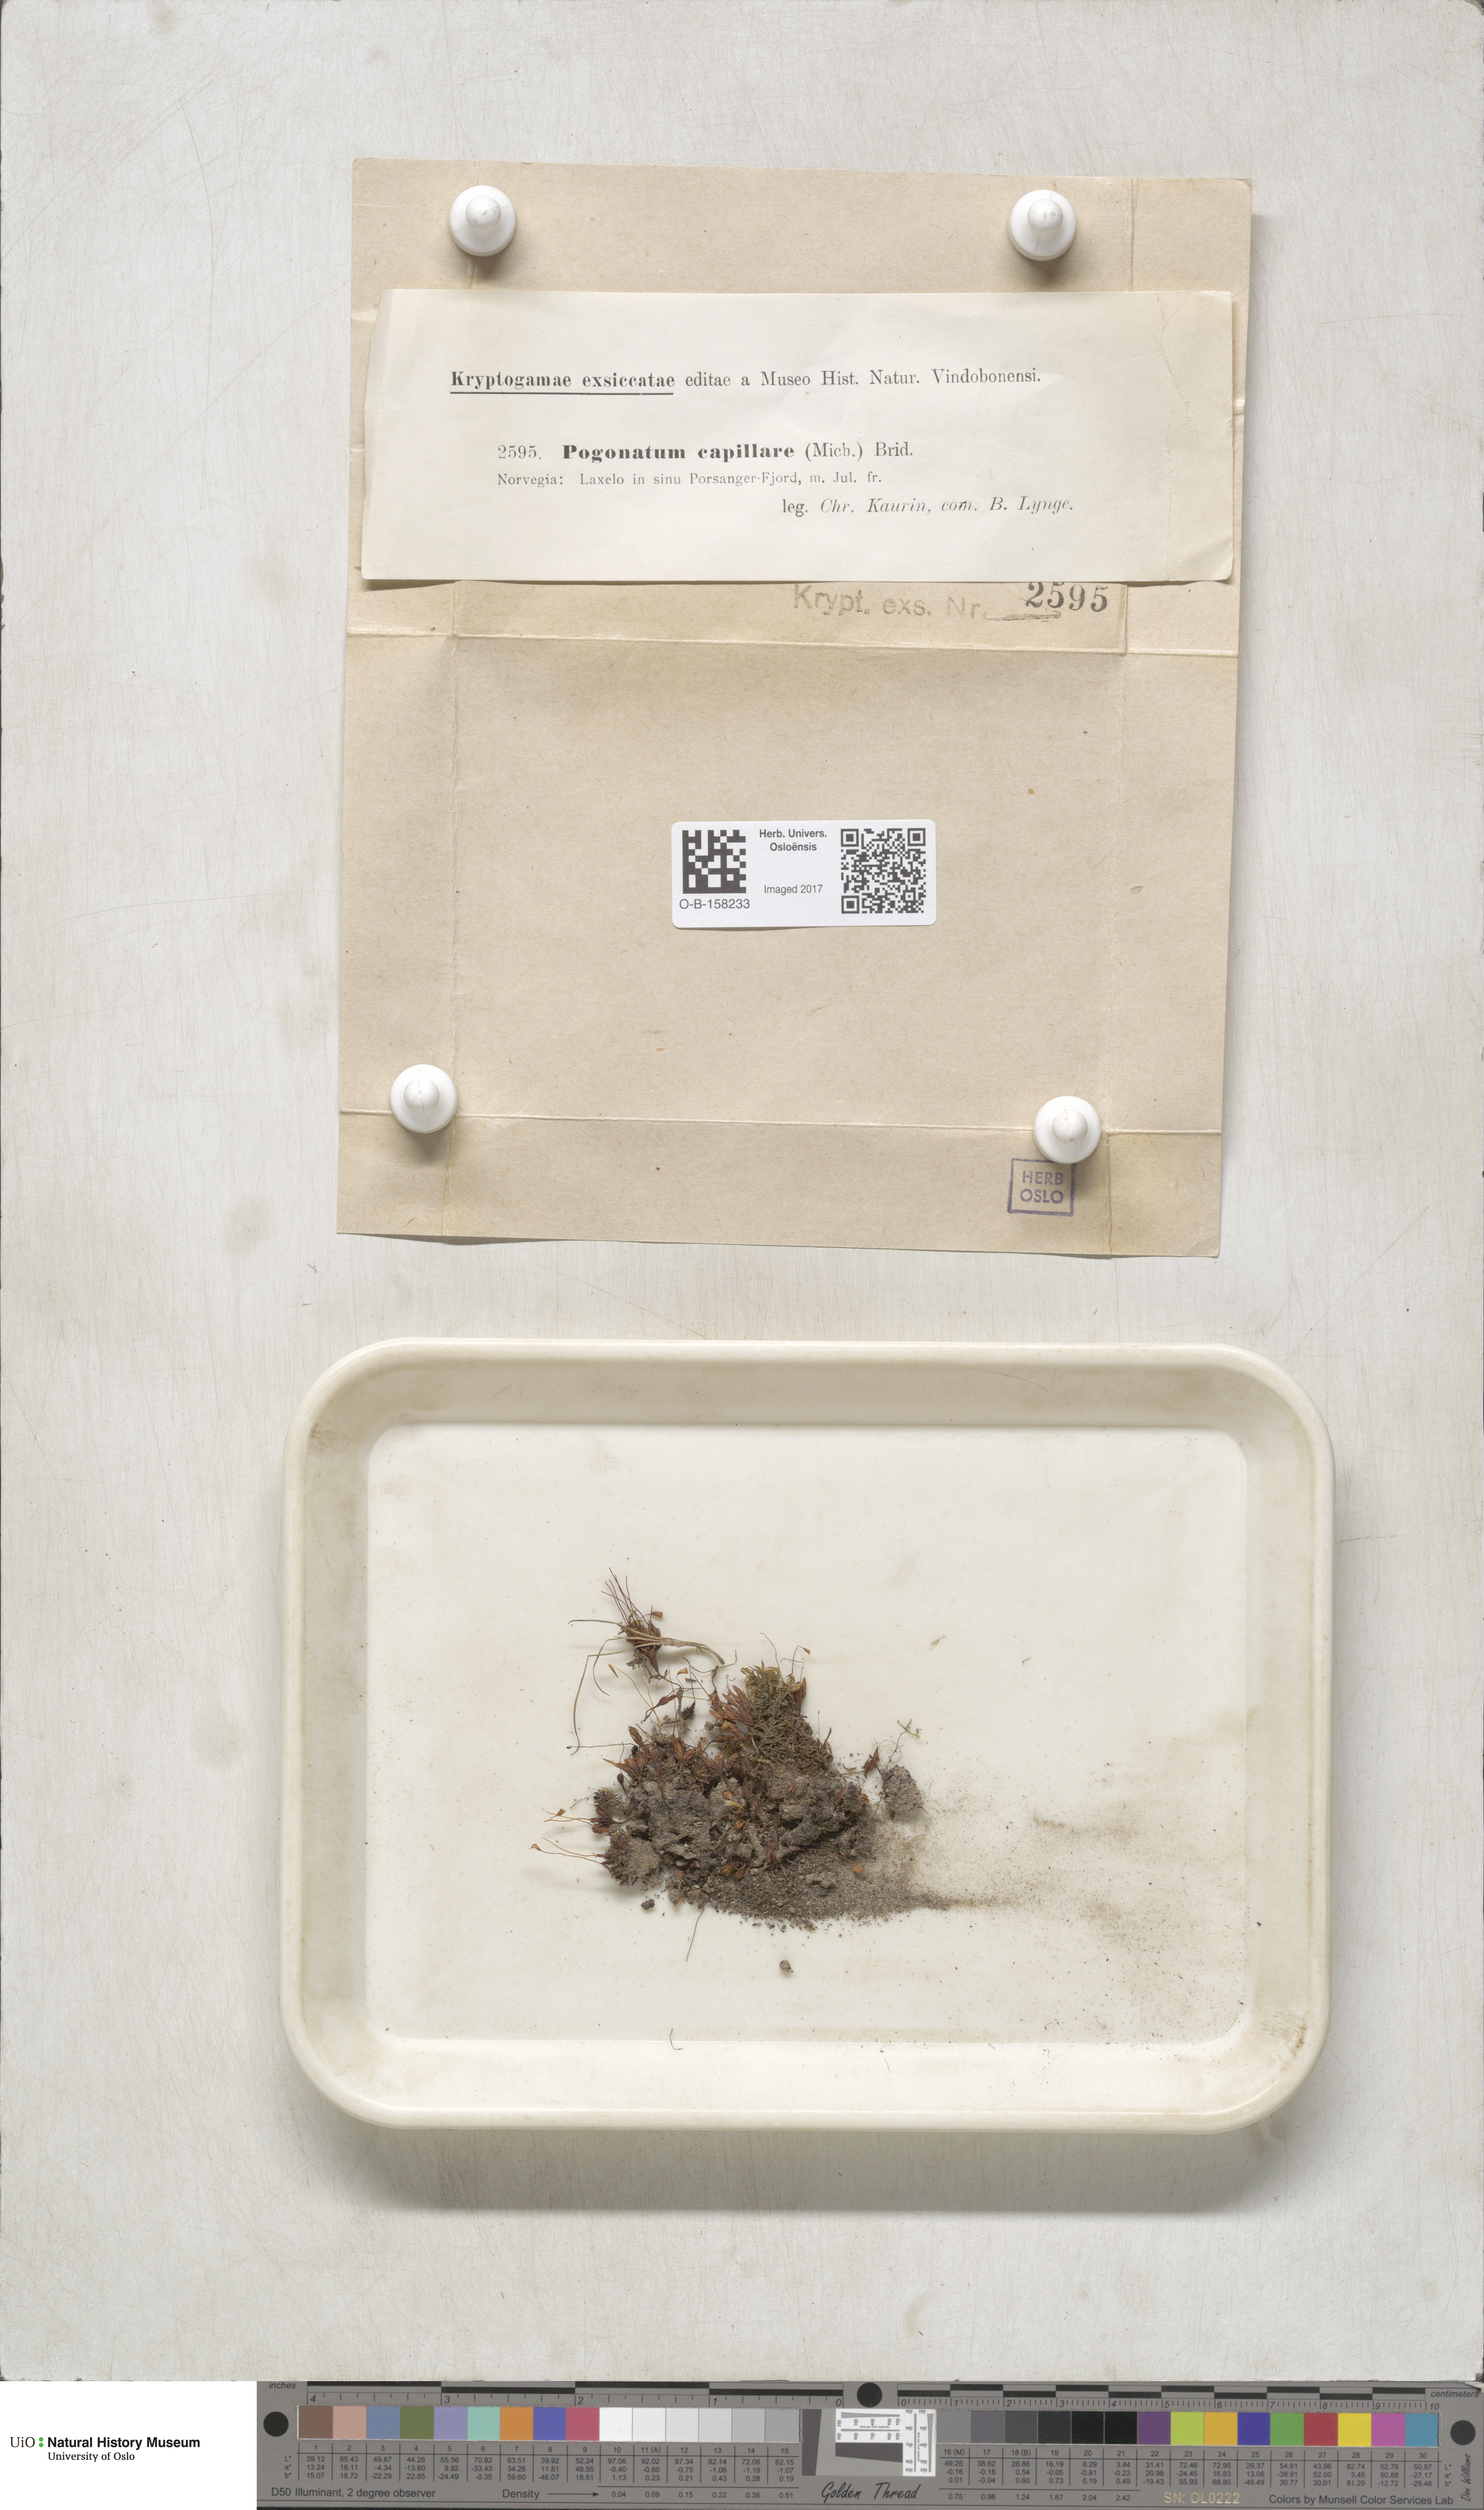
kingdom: Plantae
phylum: Bryophyta
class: Polytrichopsida
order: Polytrichales
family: Polytrichaceae
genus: Pogonatum
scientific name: Pogonatum dentatum
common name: Mountain hair moss
